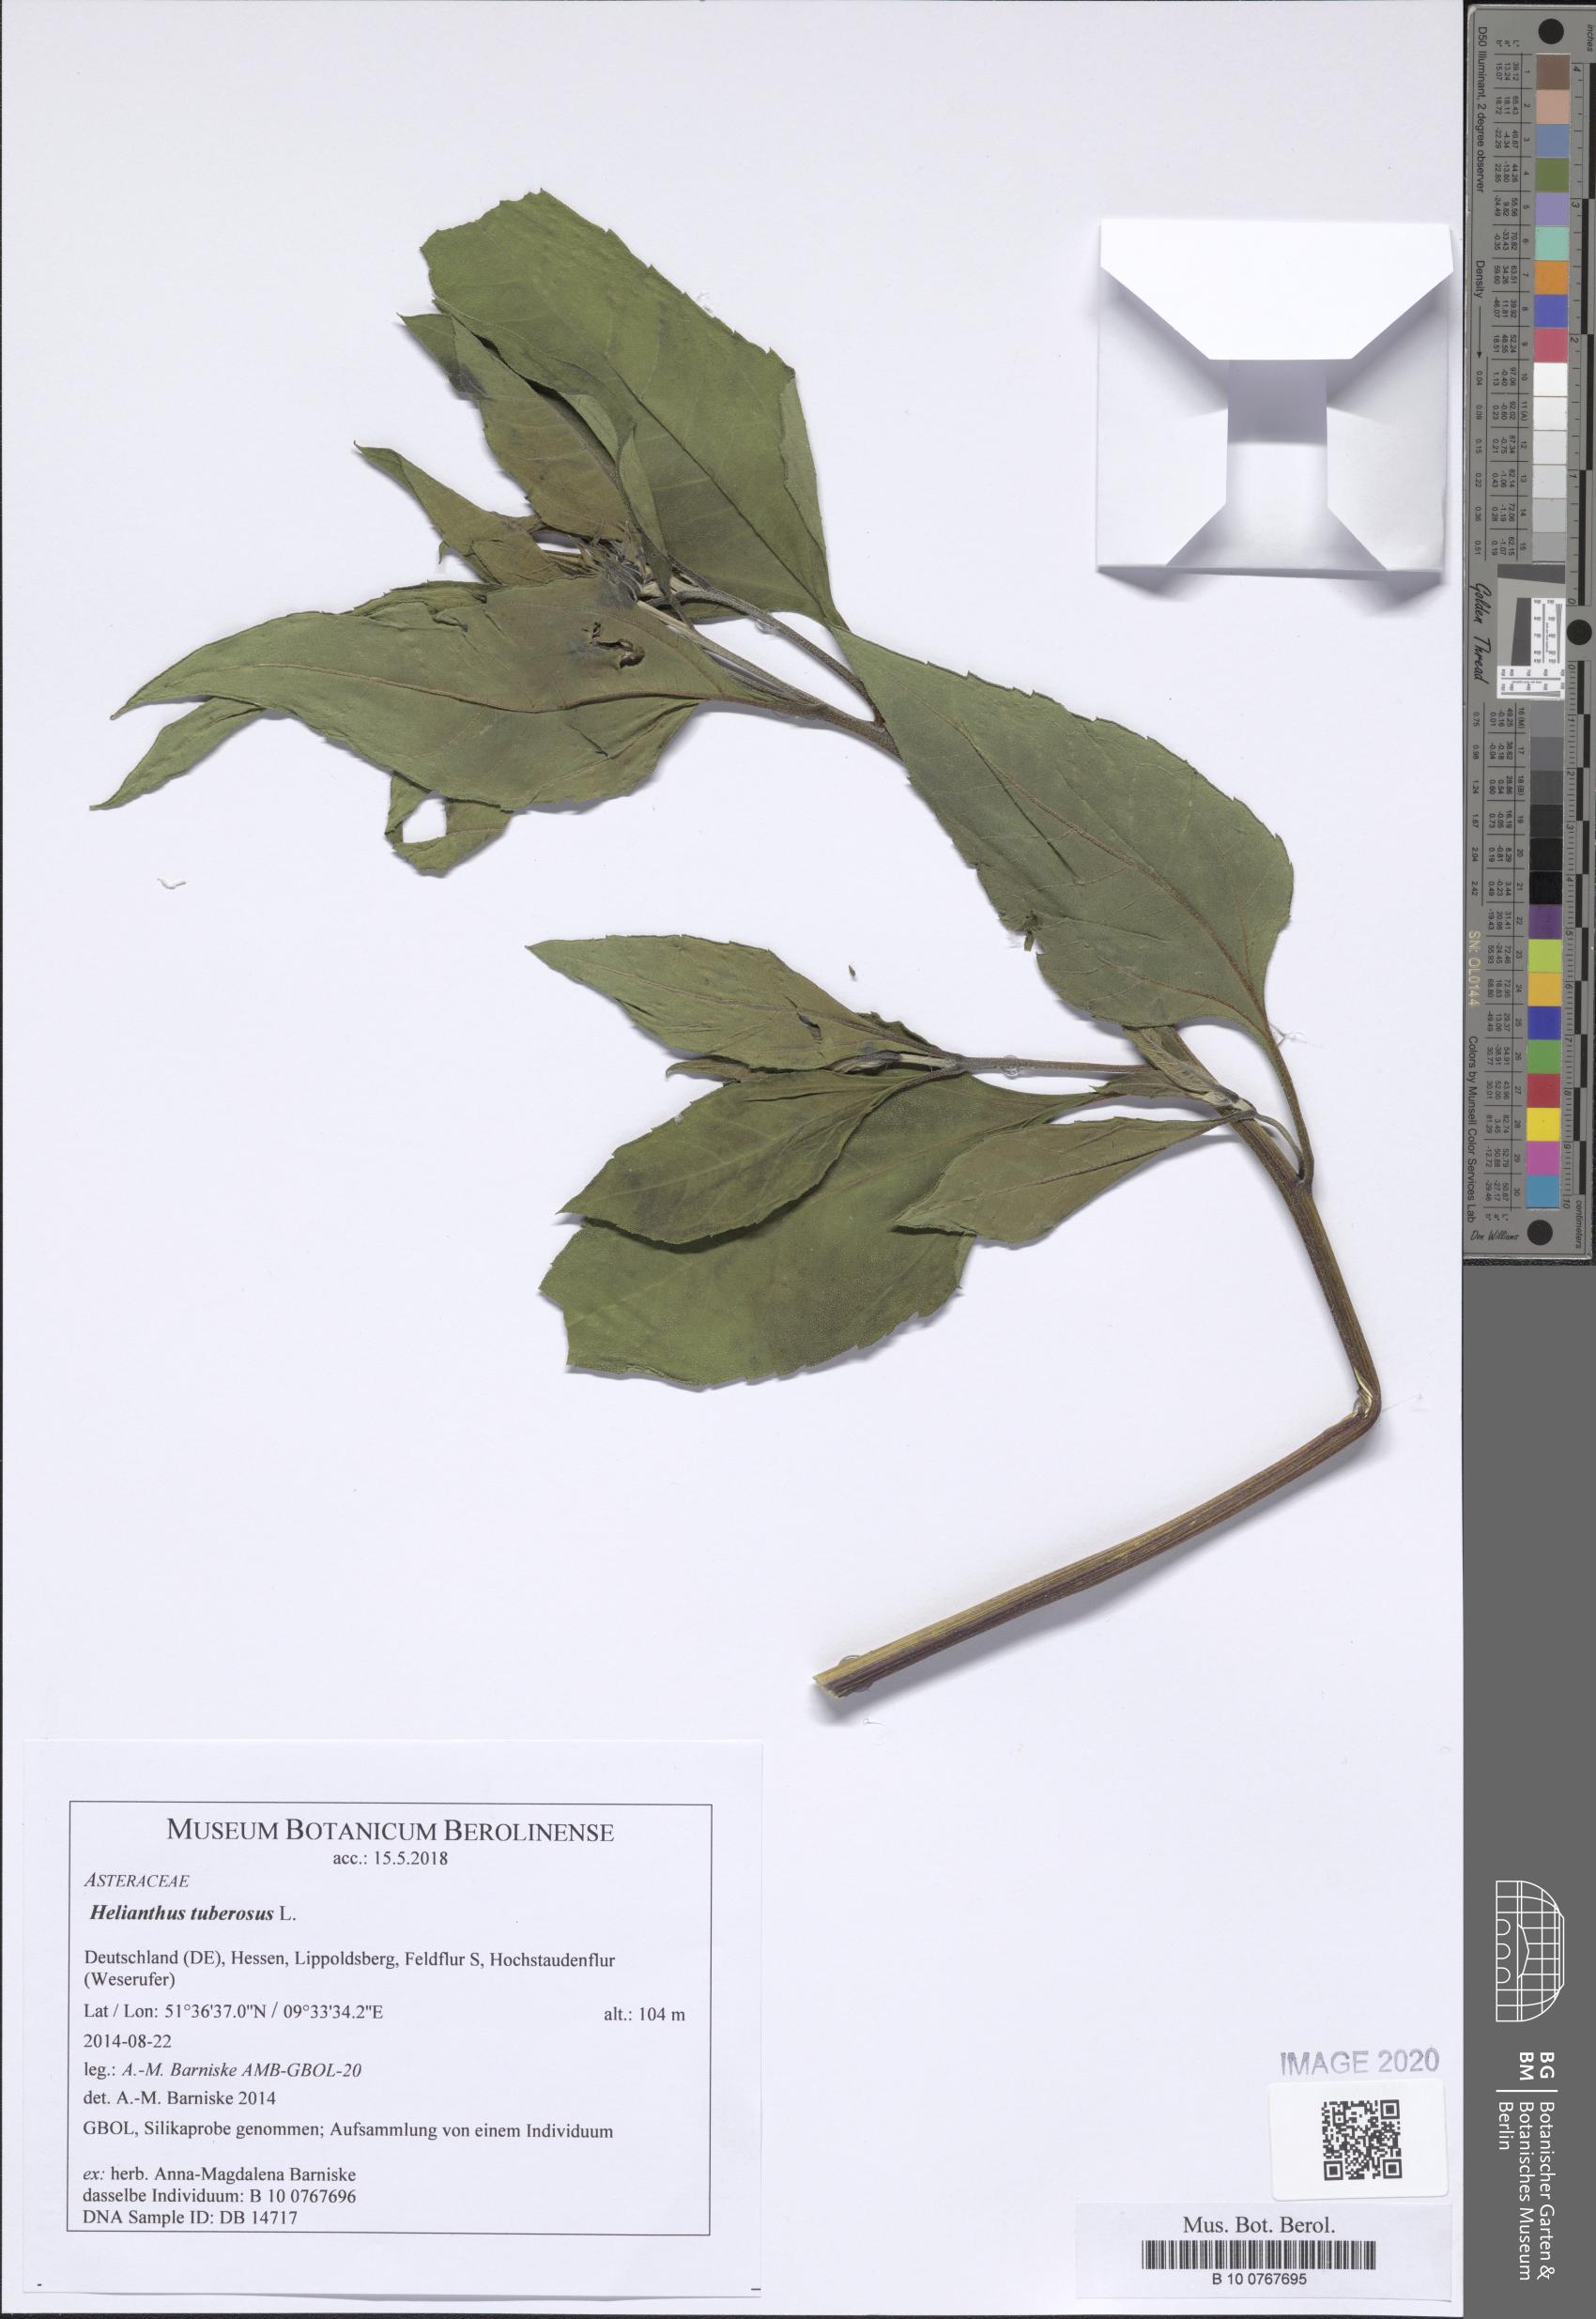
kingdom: Plantae
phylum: Tracheophyta
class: Magnoliopsida
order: Asterales
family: Asteraceae
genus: Helianthus
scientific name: Helianthus tuberosus
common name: Jerusalem artichoke
